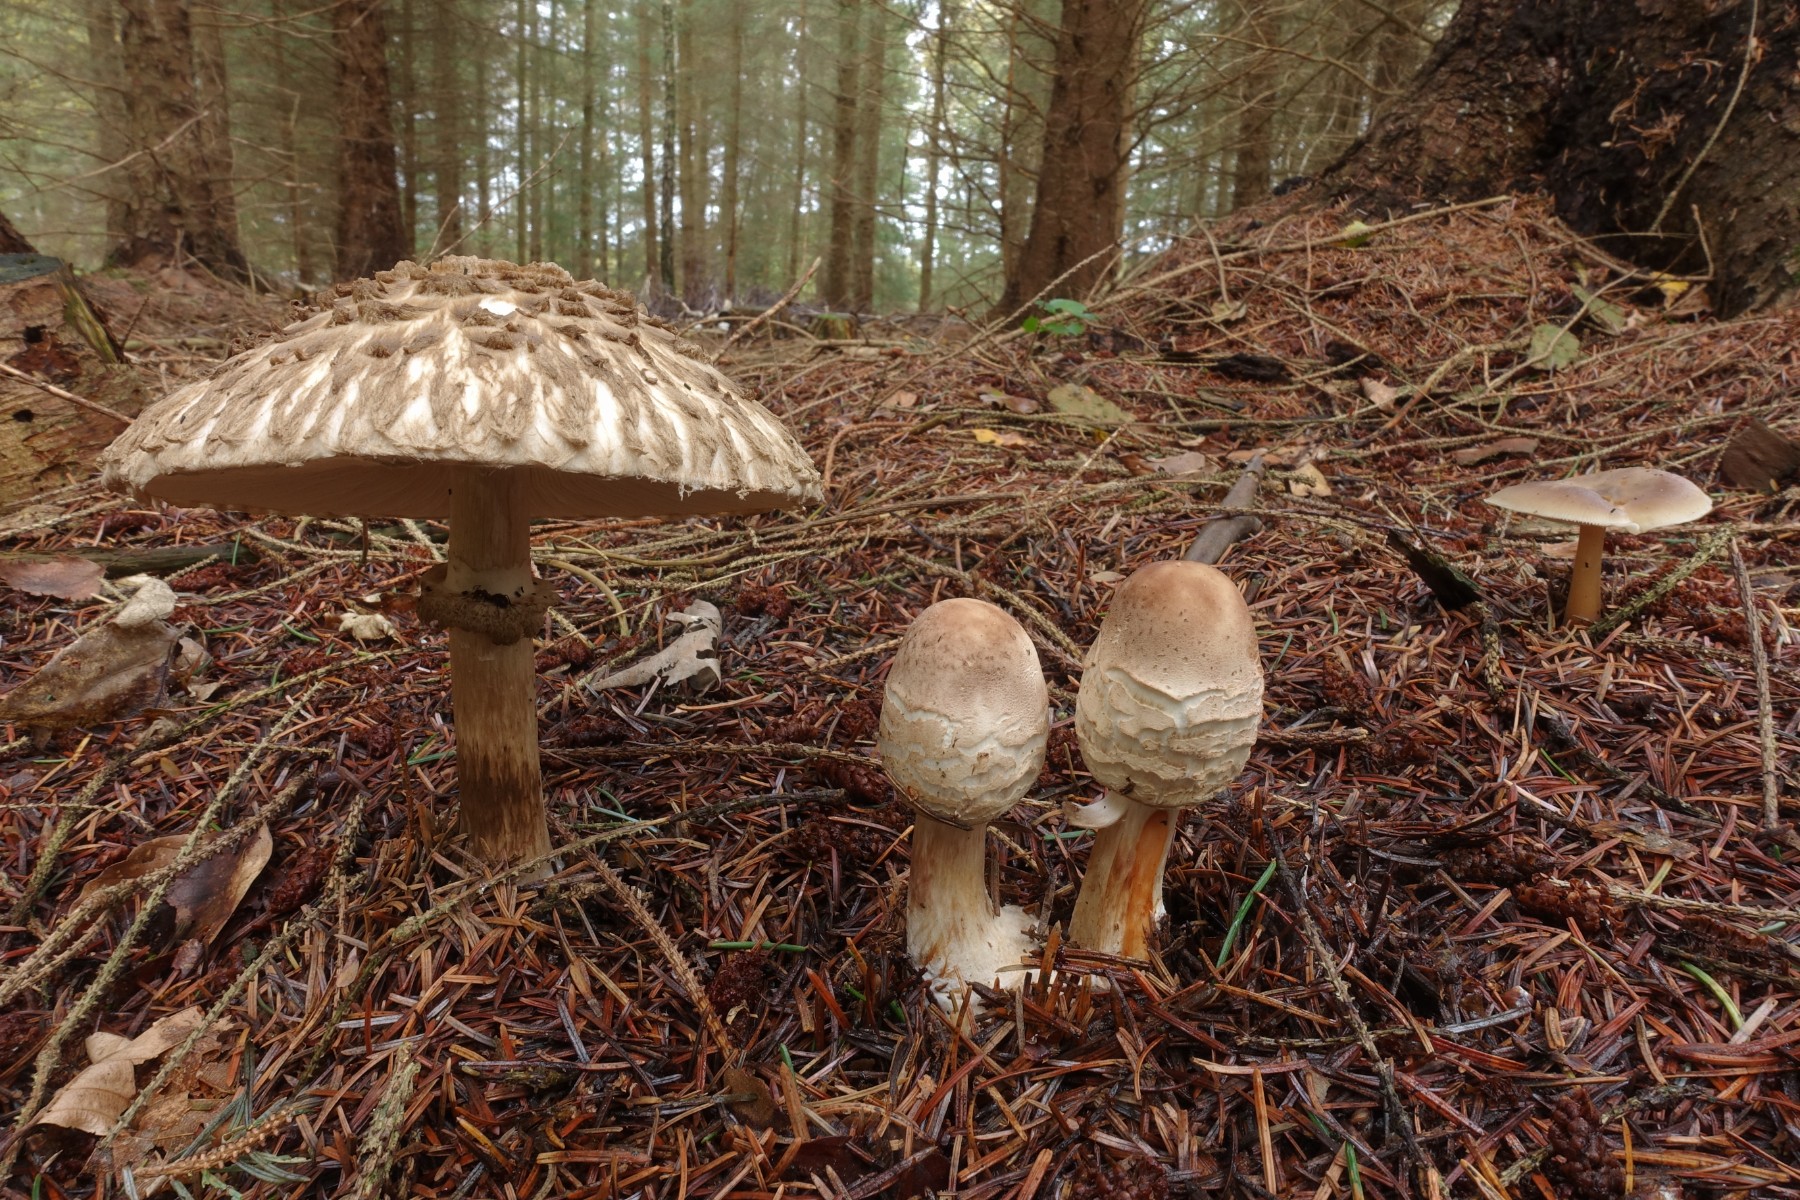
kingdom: Fungi
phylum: Basidiomycota
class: Agaricomycetes
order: Agaricales
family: Agaricaceae
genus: Chlorophyllum
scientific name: Chlorophyllum olivieri
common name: almindelig rabarberhat
